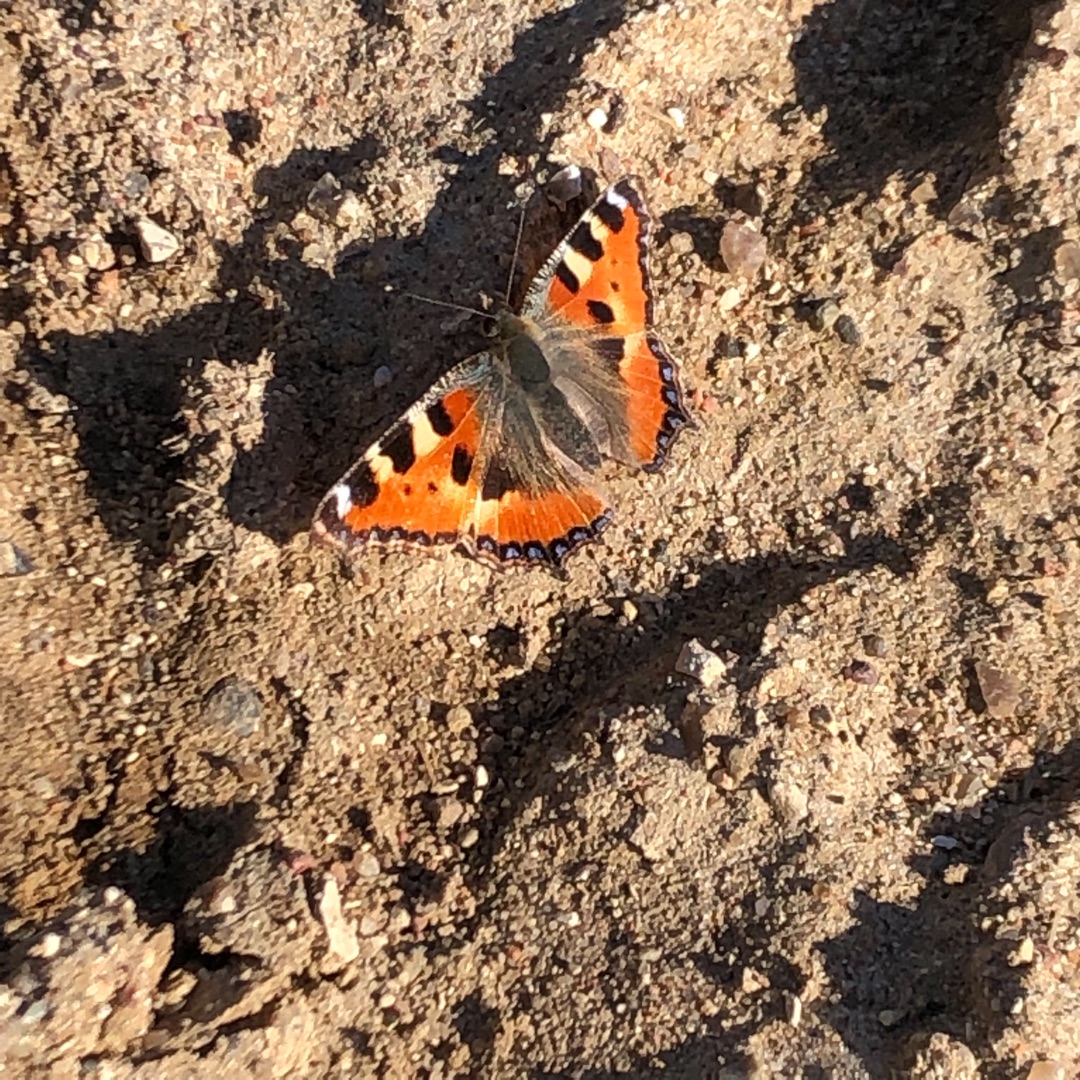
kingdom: Animalia
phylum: Arthropoda
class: Insecta
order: Lepidoptera
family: Nymphalidae
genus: Aglais
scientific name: Aglais urticae
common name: Nældens takvinge
